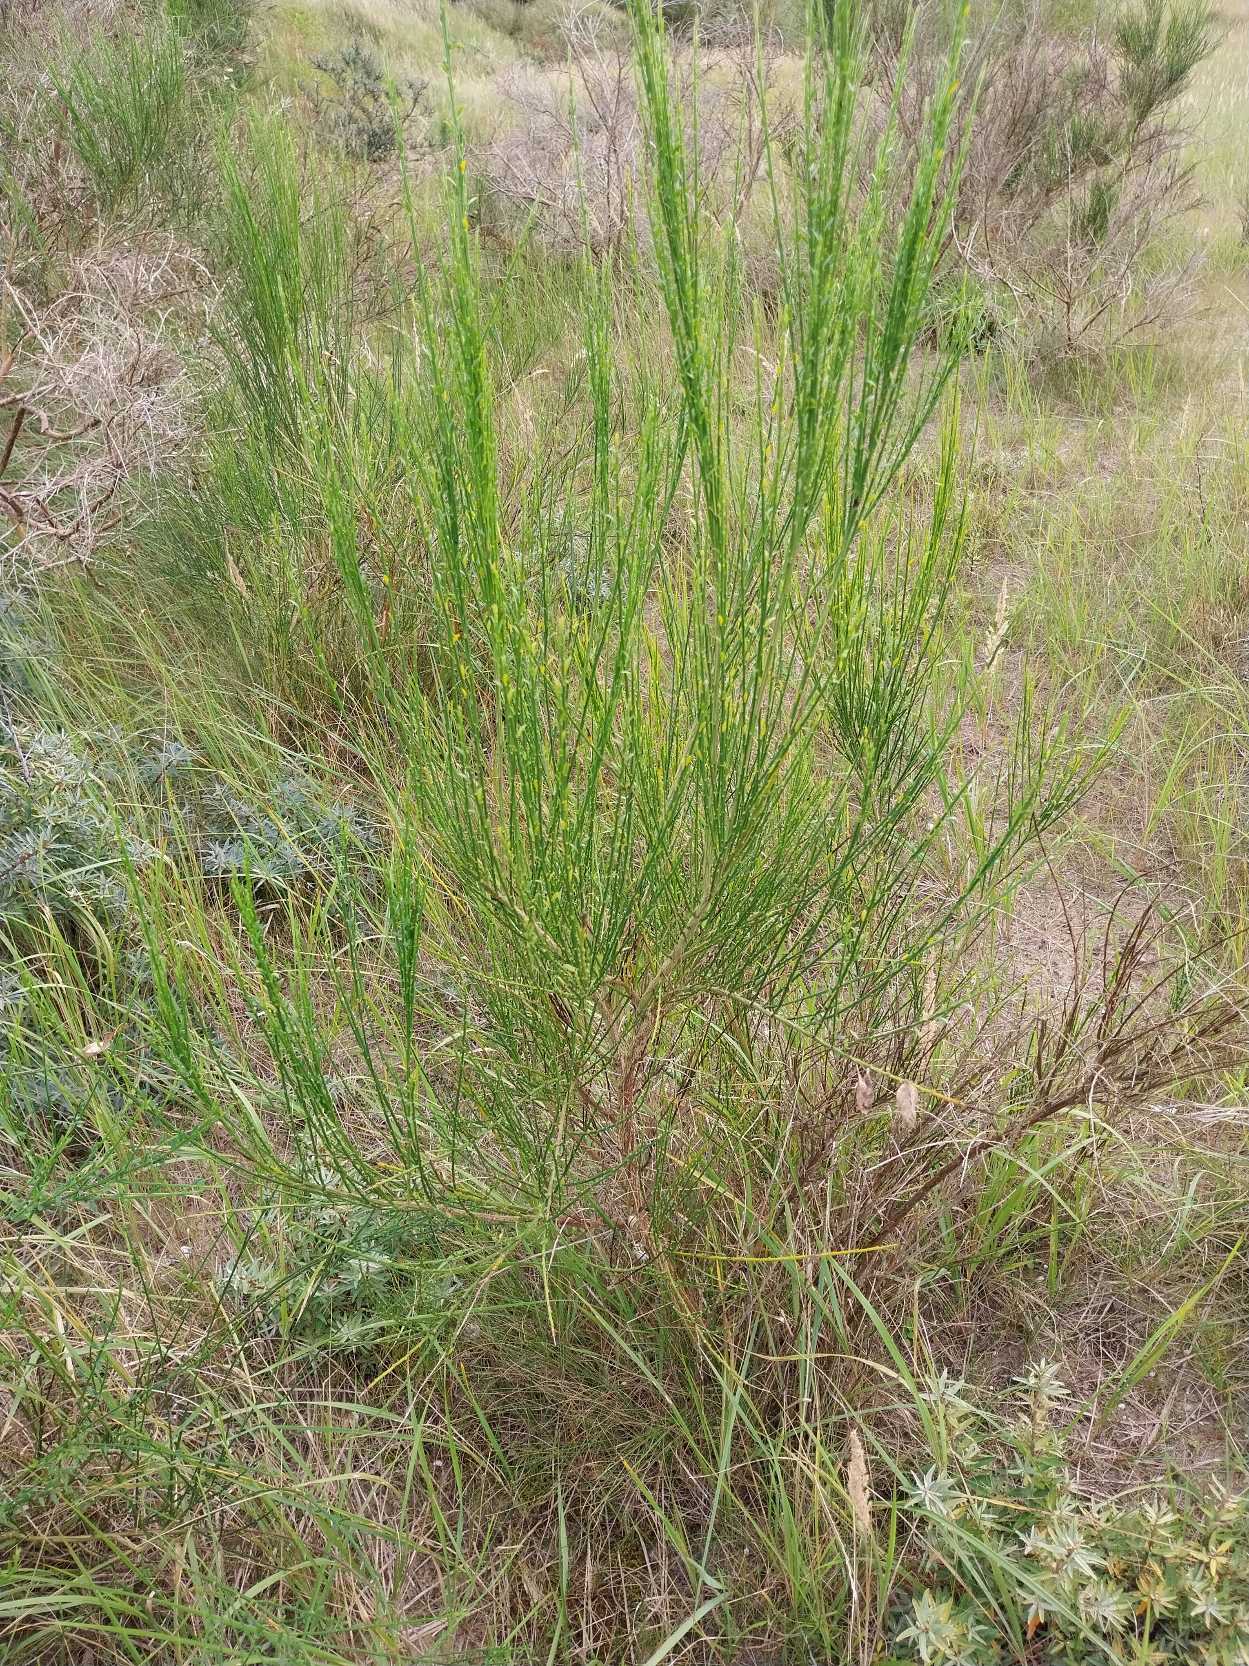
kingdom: Plantae
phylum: Tracheophyta
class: Magnoliopsida
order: Fabales
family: Fabaceae
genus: Cytisus
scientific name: Cytisus scoparius
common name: Almindelig gyvel
